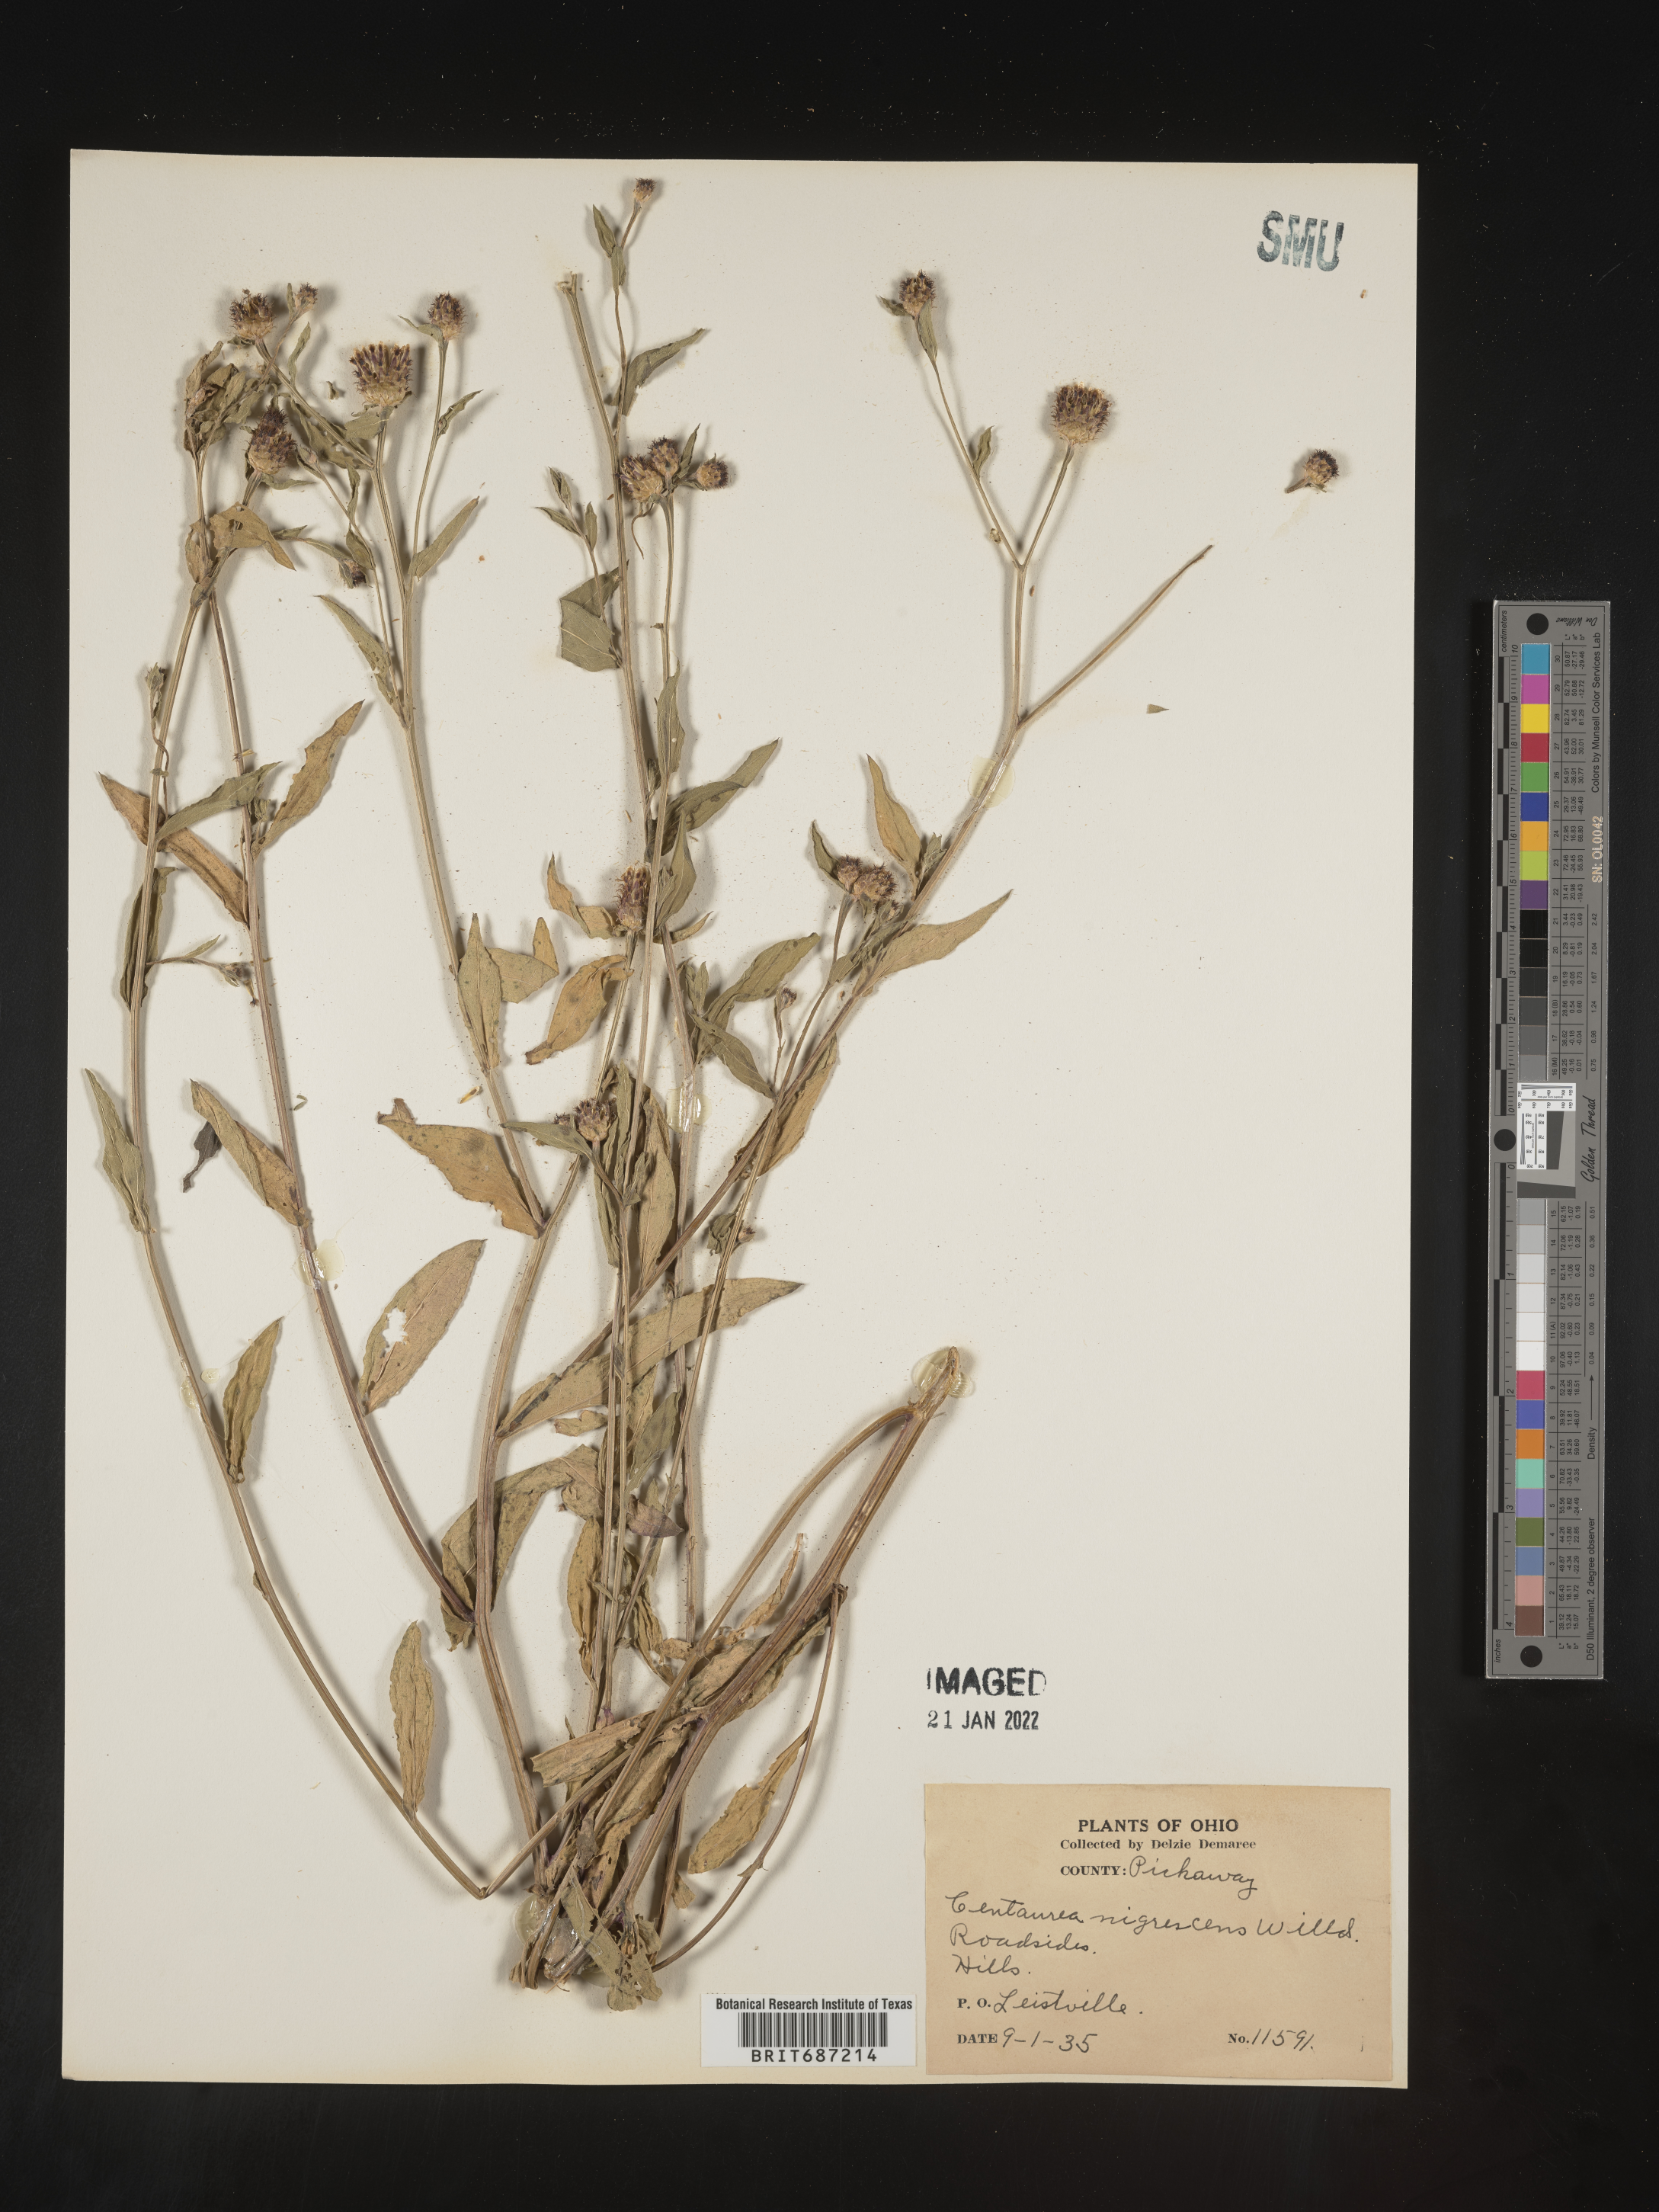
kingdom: Plantae
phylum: Tracheophyta
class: Magnoliopsida
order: Asterales
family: Asteraceae
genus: Centaurea
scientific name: Centaurea nigrescens
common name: Tyrol knapweed
